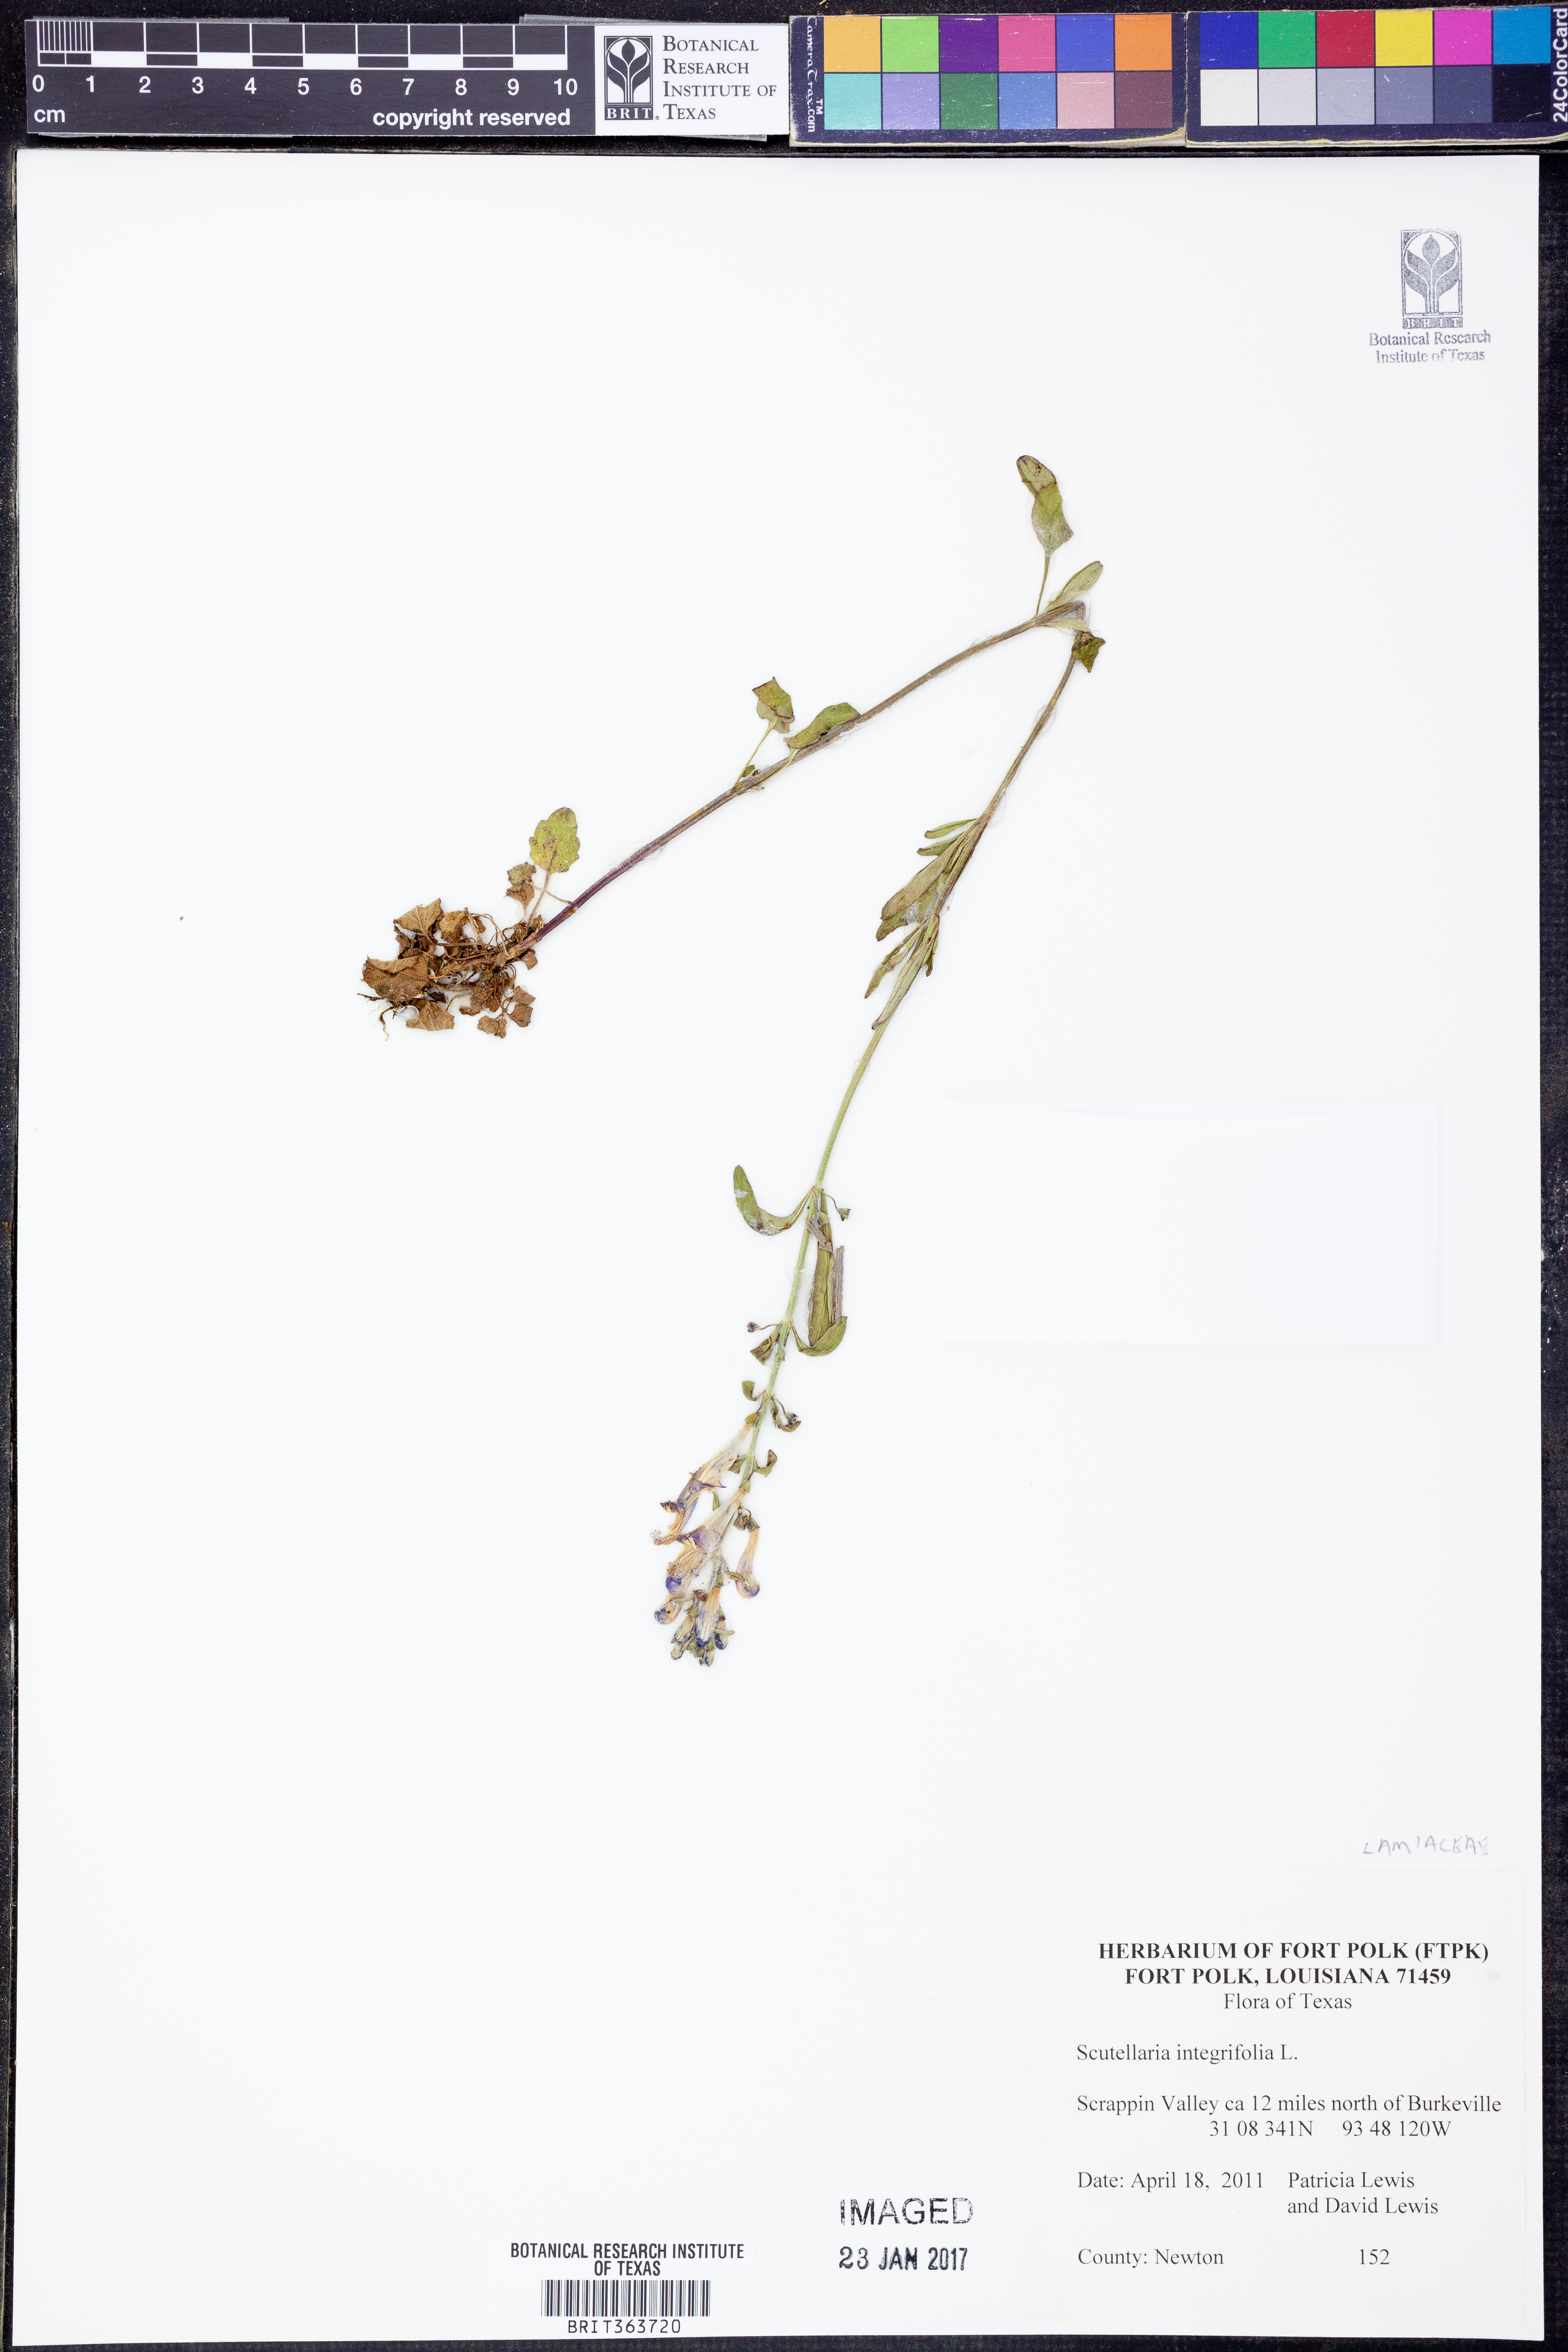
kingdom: Plantae
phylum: Tracheophyta
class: Magnoliopsida
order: Lamiales
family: Lamiaceae
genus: Scutellaria
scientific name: Scutellaria integrifolia
